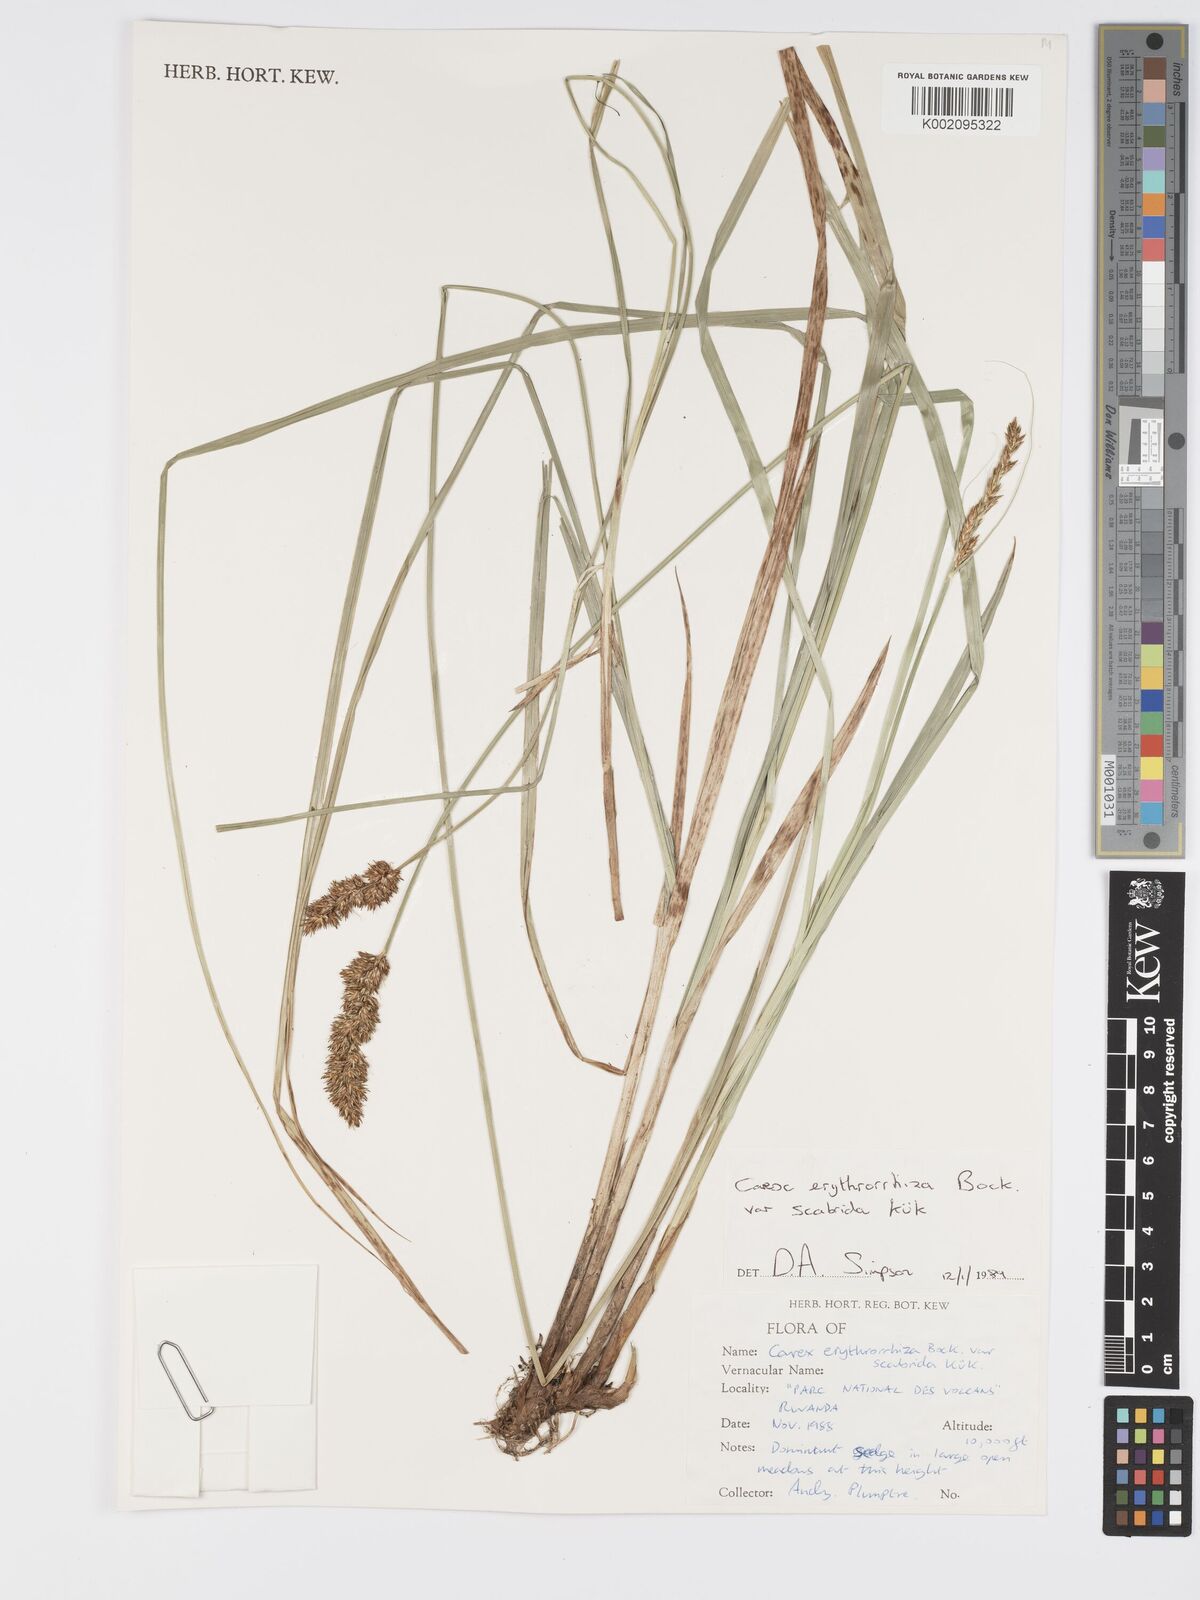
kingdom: Plantae
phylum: Tracheophyta
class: Liliopsida
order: Poales
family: Cyperaceae
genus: Carex
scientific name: Carex lycurus
